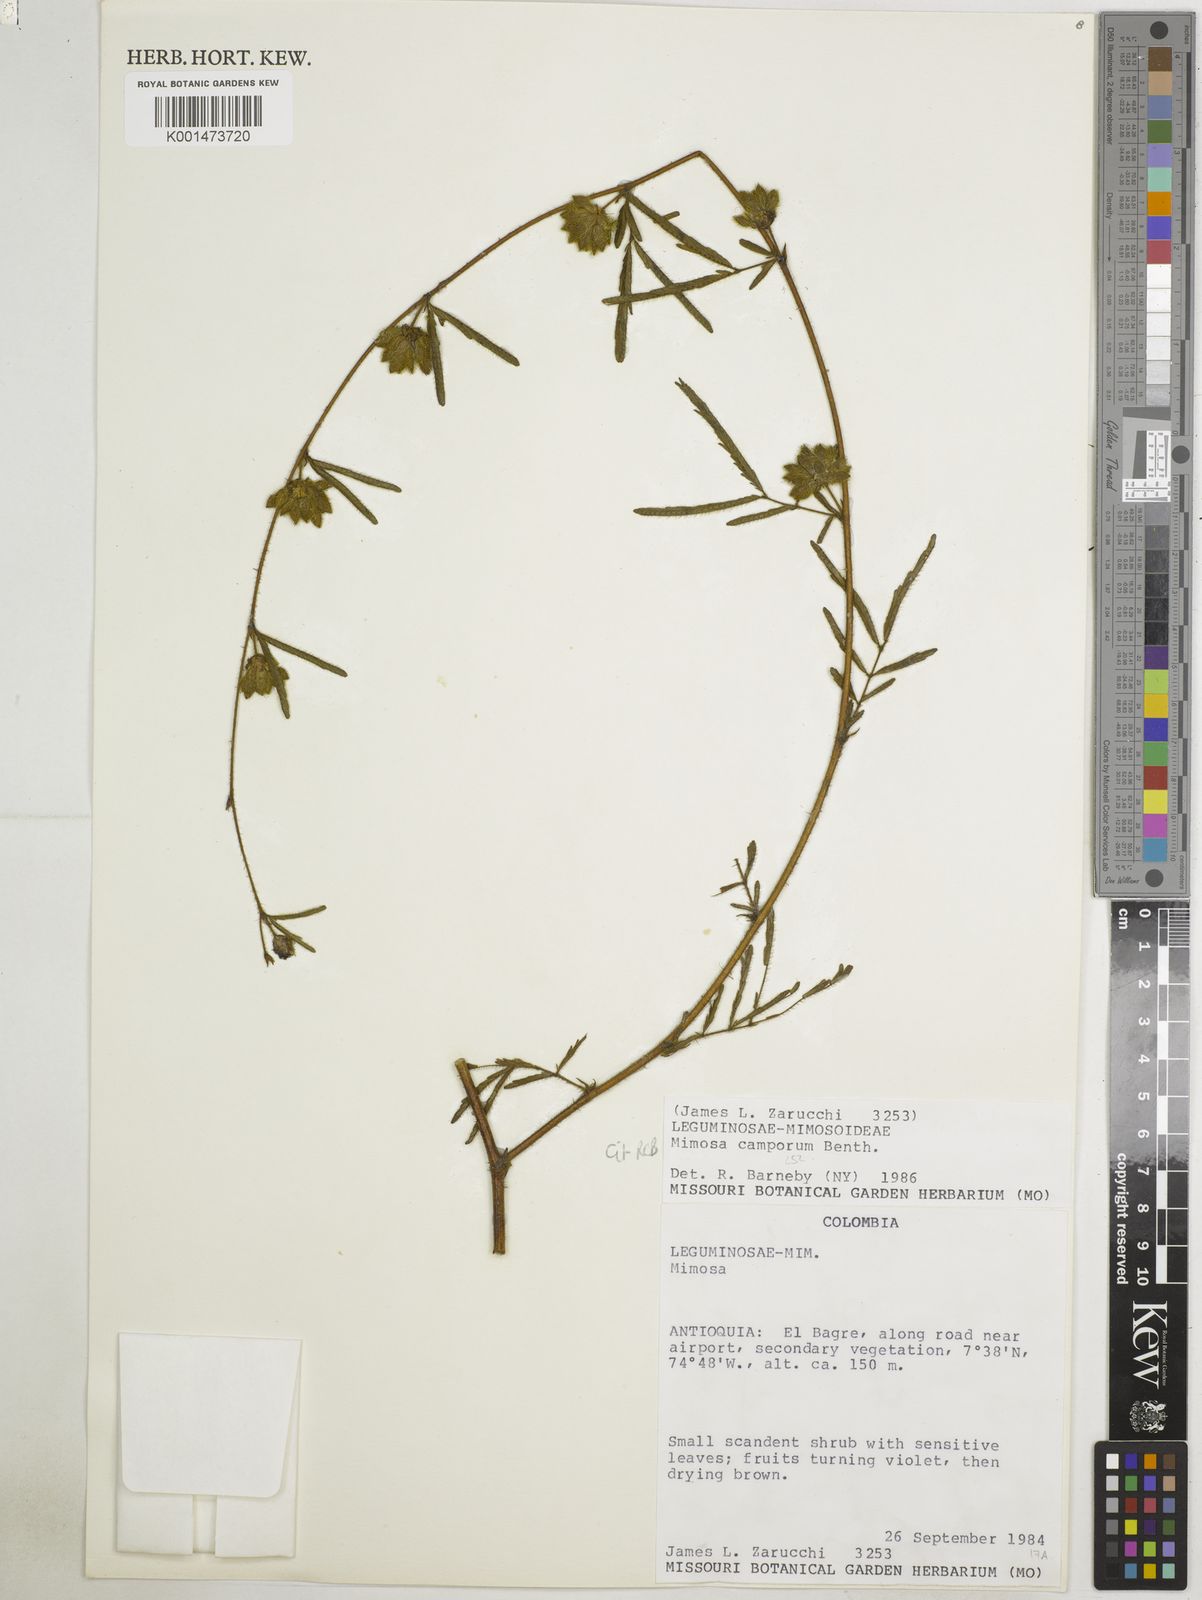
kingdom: Plantae
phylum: Tracheophyta
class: Magnoliopsida
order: Fabales
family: Fabaceae
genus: Mimosa
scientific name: Mimosa camporum
